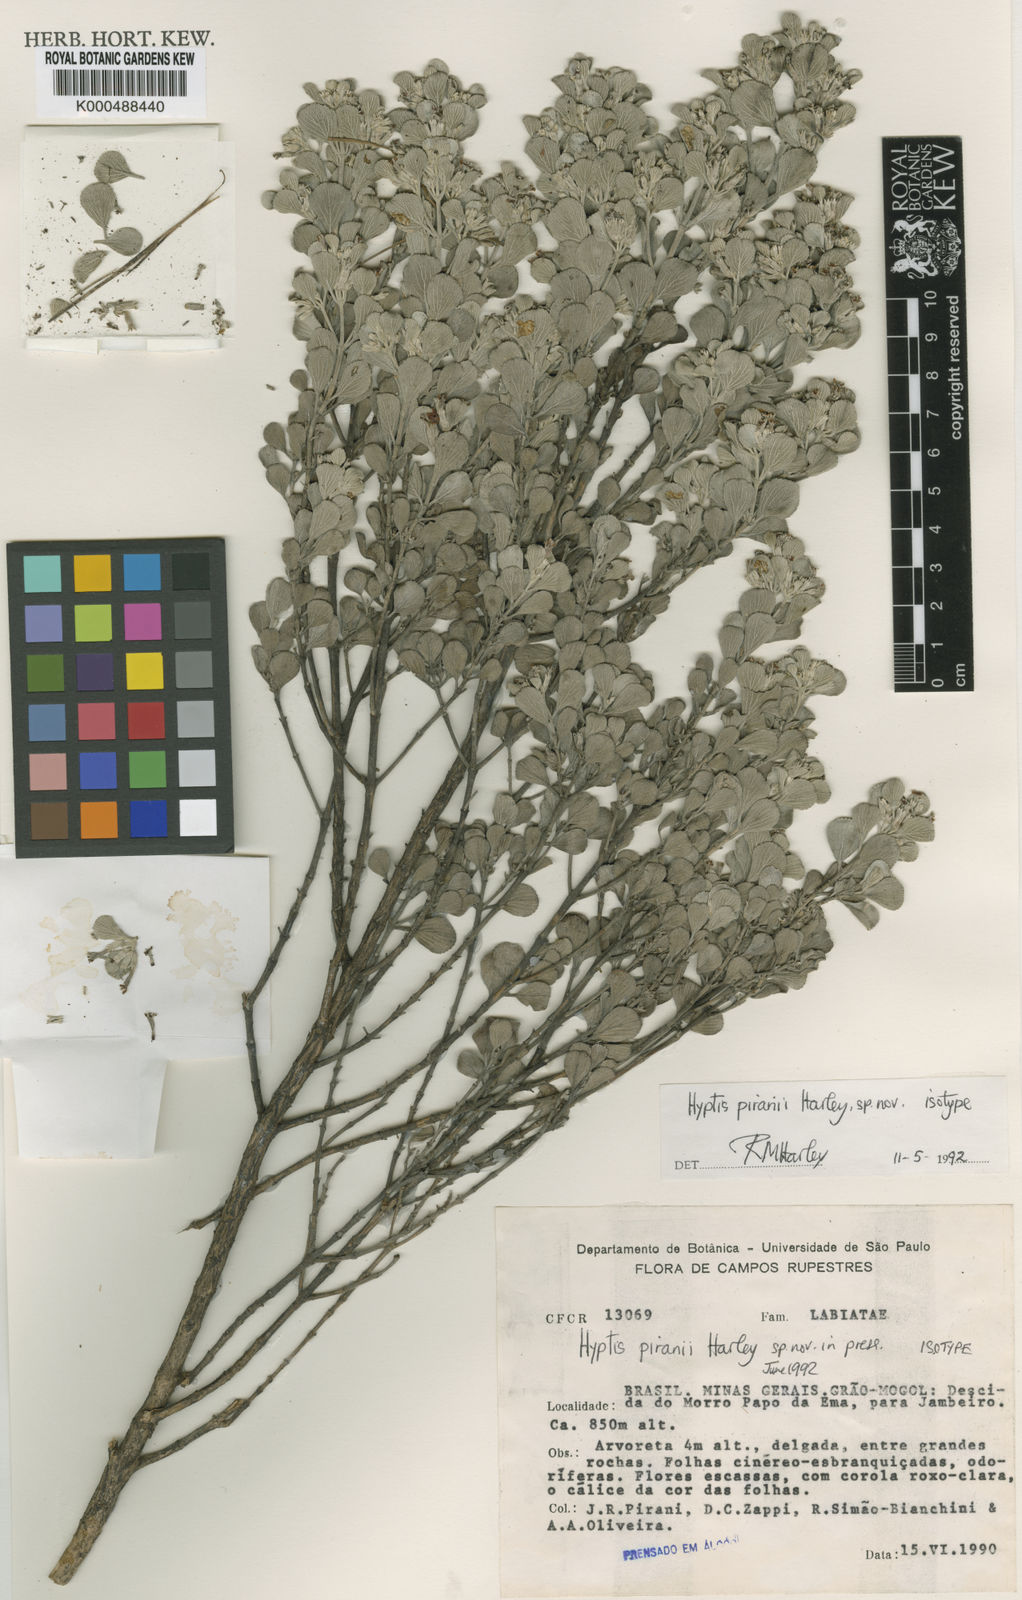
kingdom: Plantae
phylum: Tracheophyta
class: Magnoliopsida
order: Lamiales
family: Lamiaceae
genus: Hyptis
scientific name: Hyptis piranii
